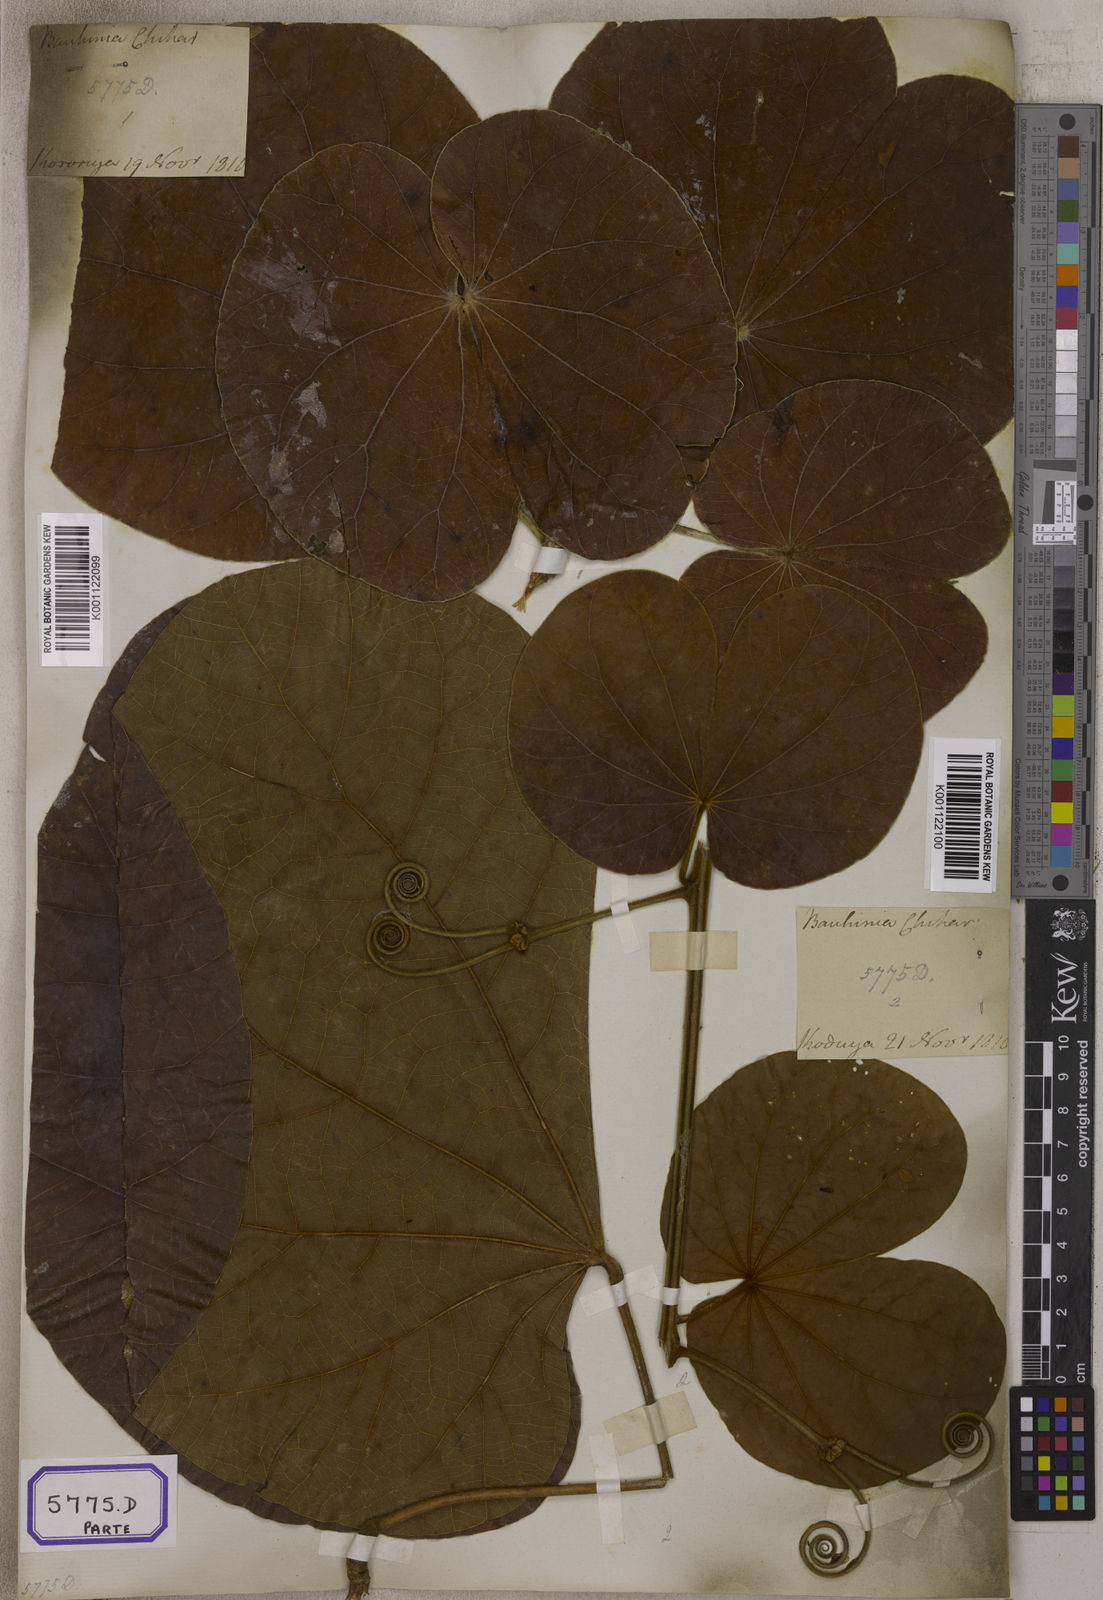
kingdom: Plantae
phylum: Tracheophyta
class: Magnoliopsida
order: Fabales
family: Fabaceae
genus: Bauhinia
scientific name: Bauhinia
